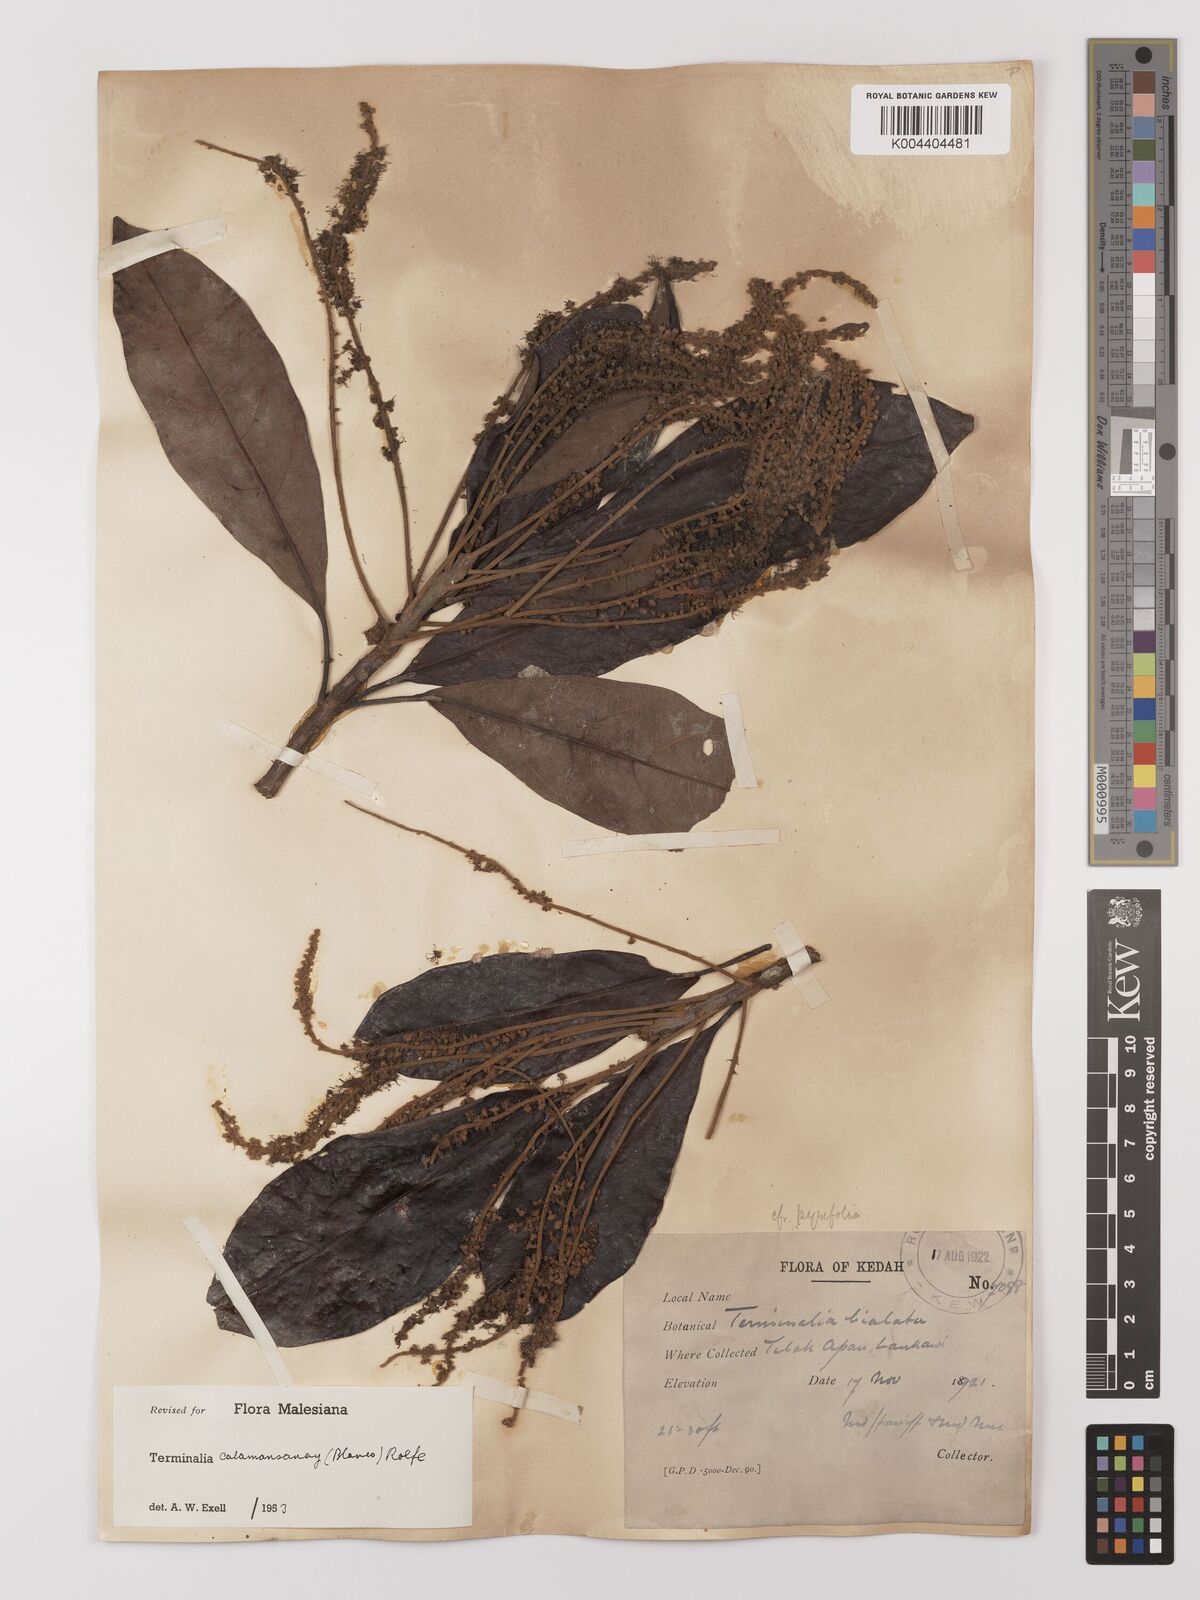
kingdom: Plantae
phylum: Tracheophyta
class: Magnoliopsida
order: Myrtales
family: Combretaceae
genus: Terminalia
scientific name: Terminalia calamansanai
